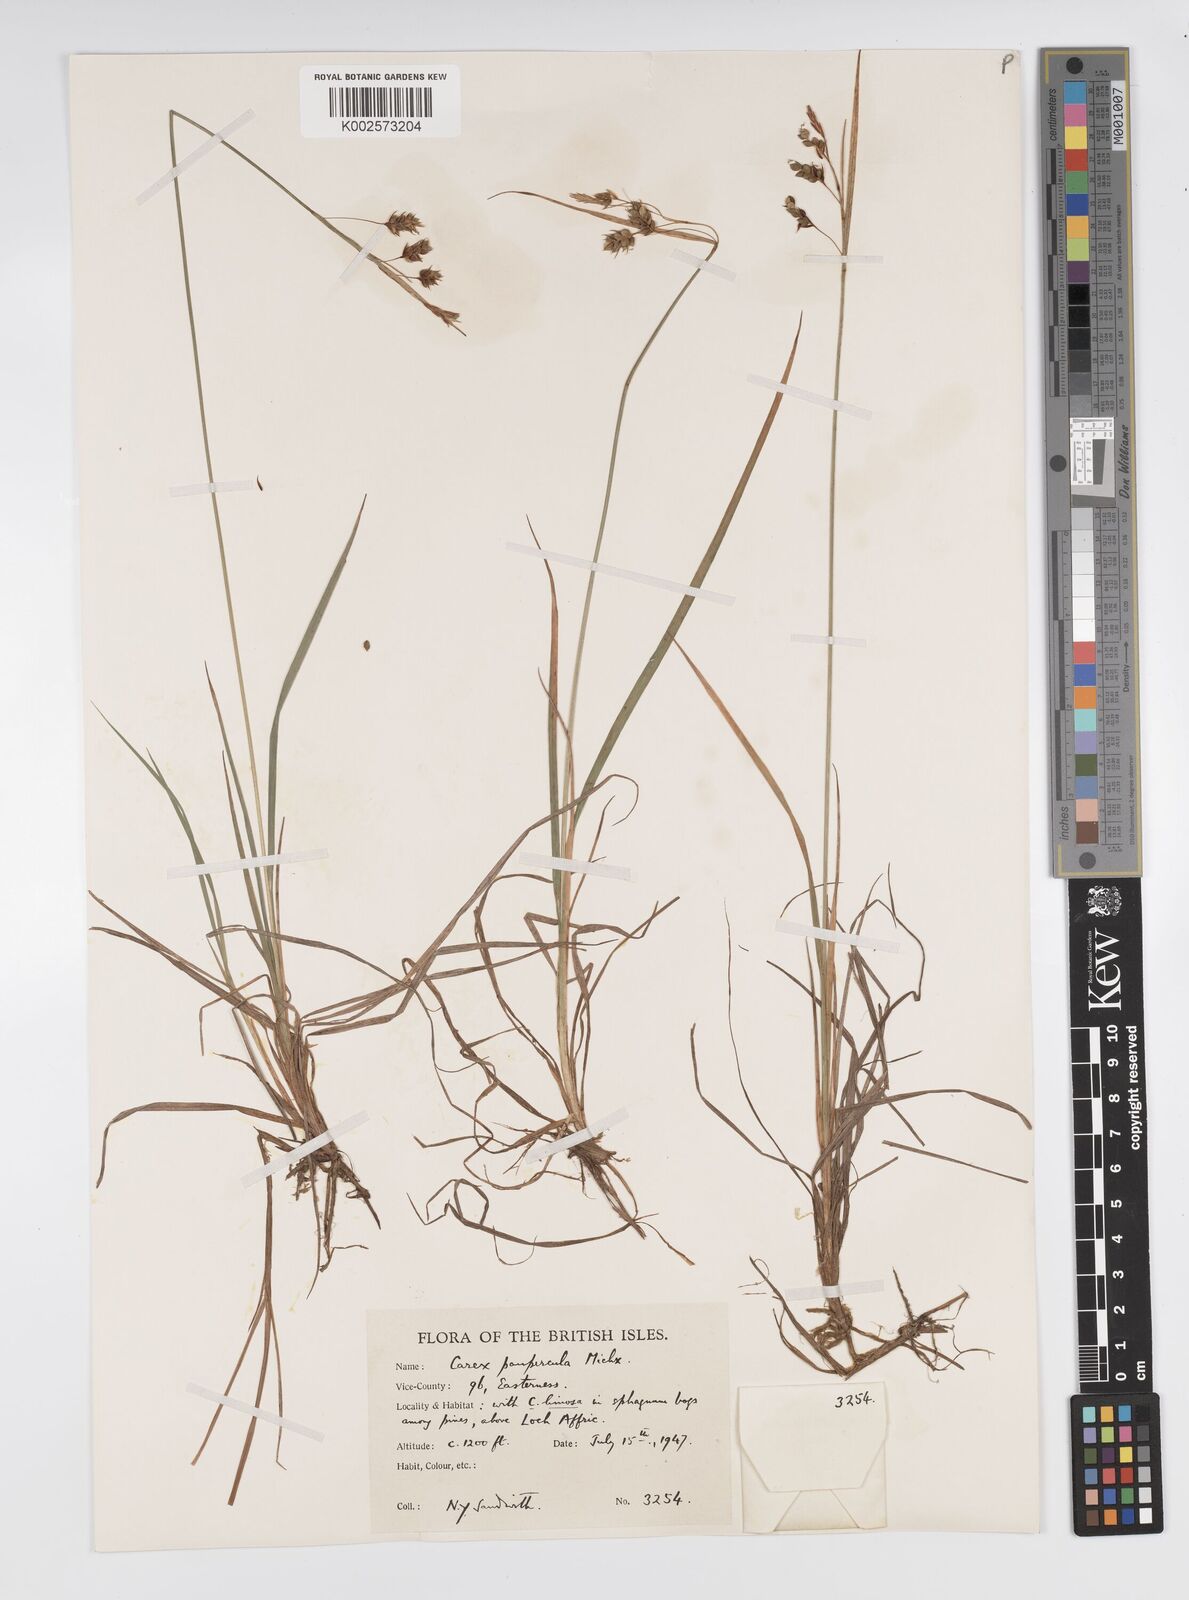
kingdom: Plantae
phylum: Tracheophyta
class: Liliopsida
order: Poales
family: Cyperaceae
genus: Carex
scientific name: Carex magellanica
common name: Bog sedge
